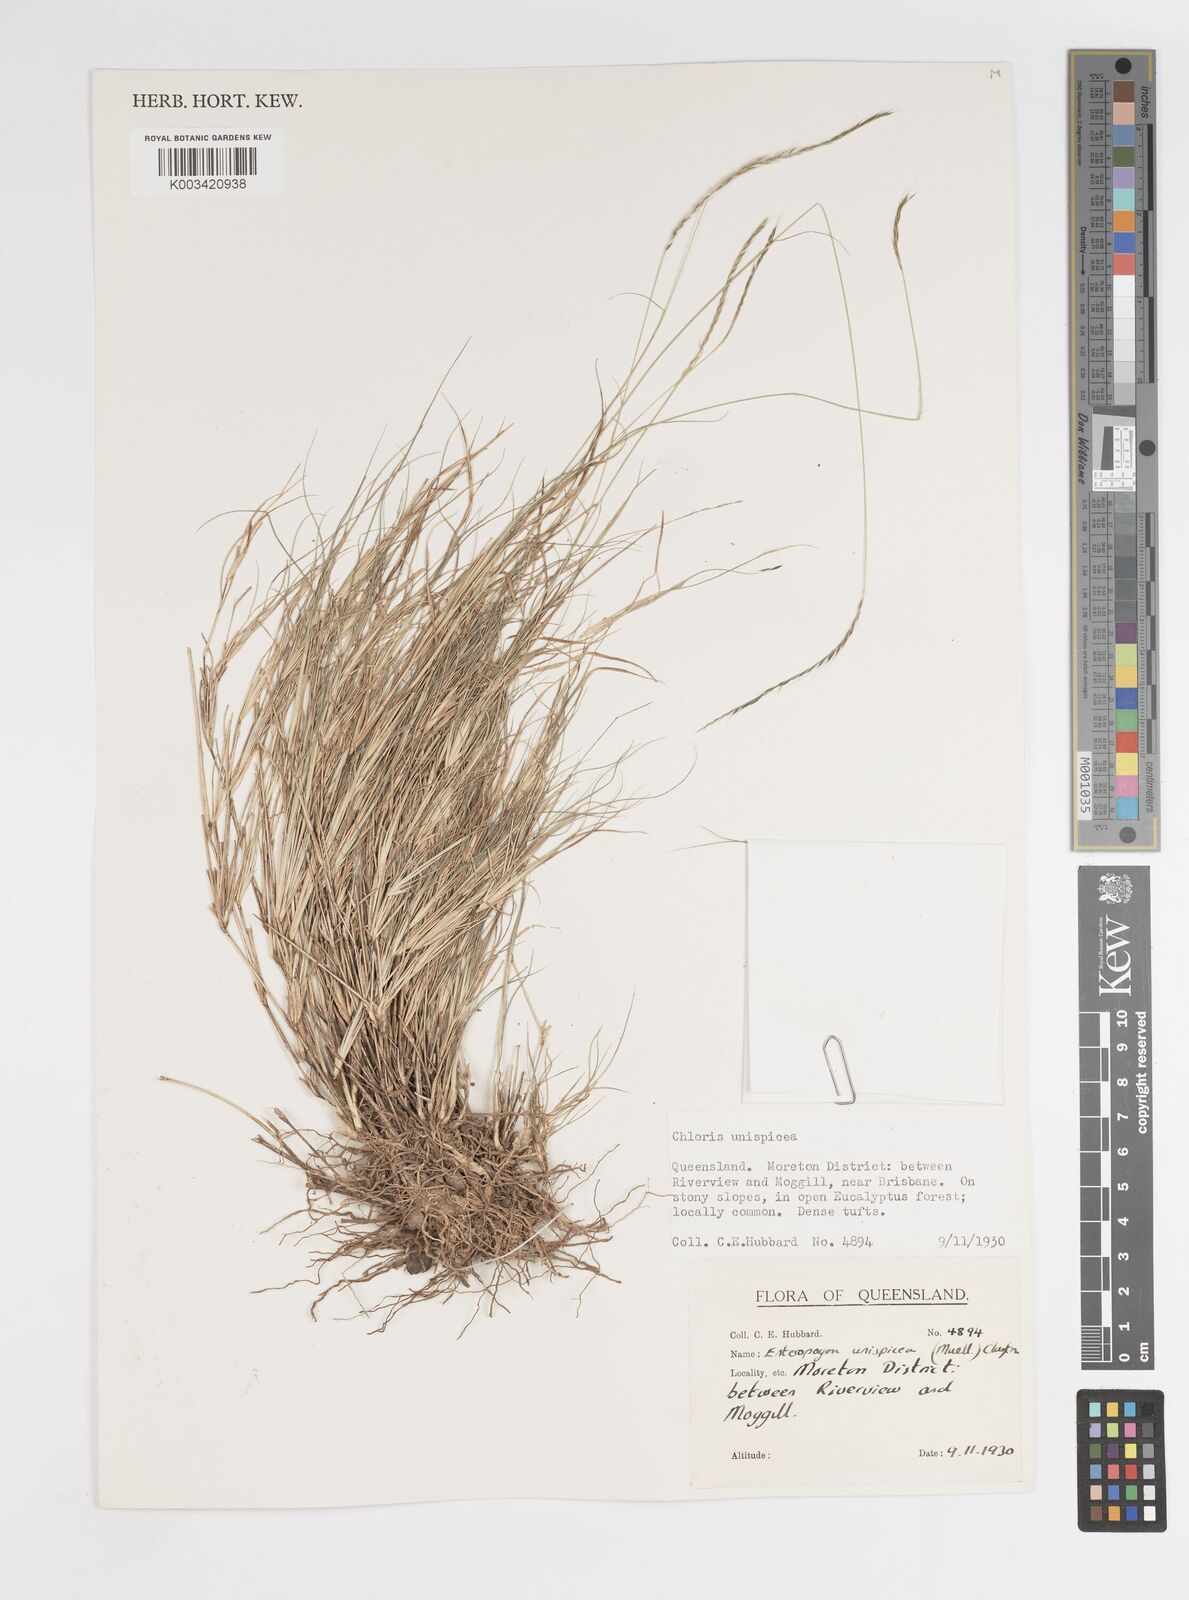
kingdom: Plantae
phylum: Tracheophyta
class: Liliopsida
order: Poales
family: Poaceae
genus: Enteropogon
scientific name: Enteropogon unispiceus
